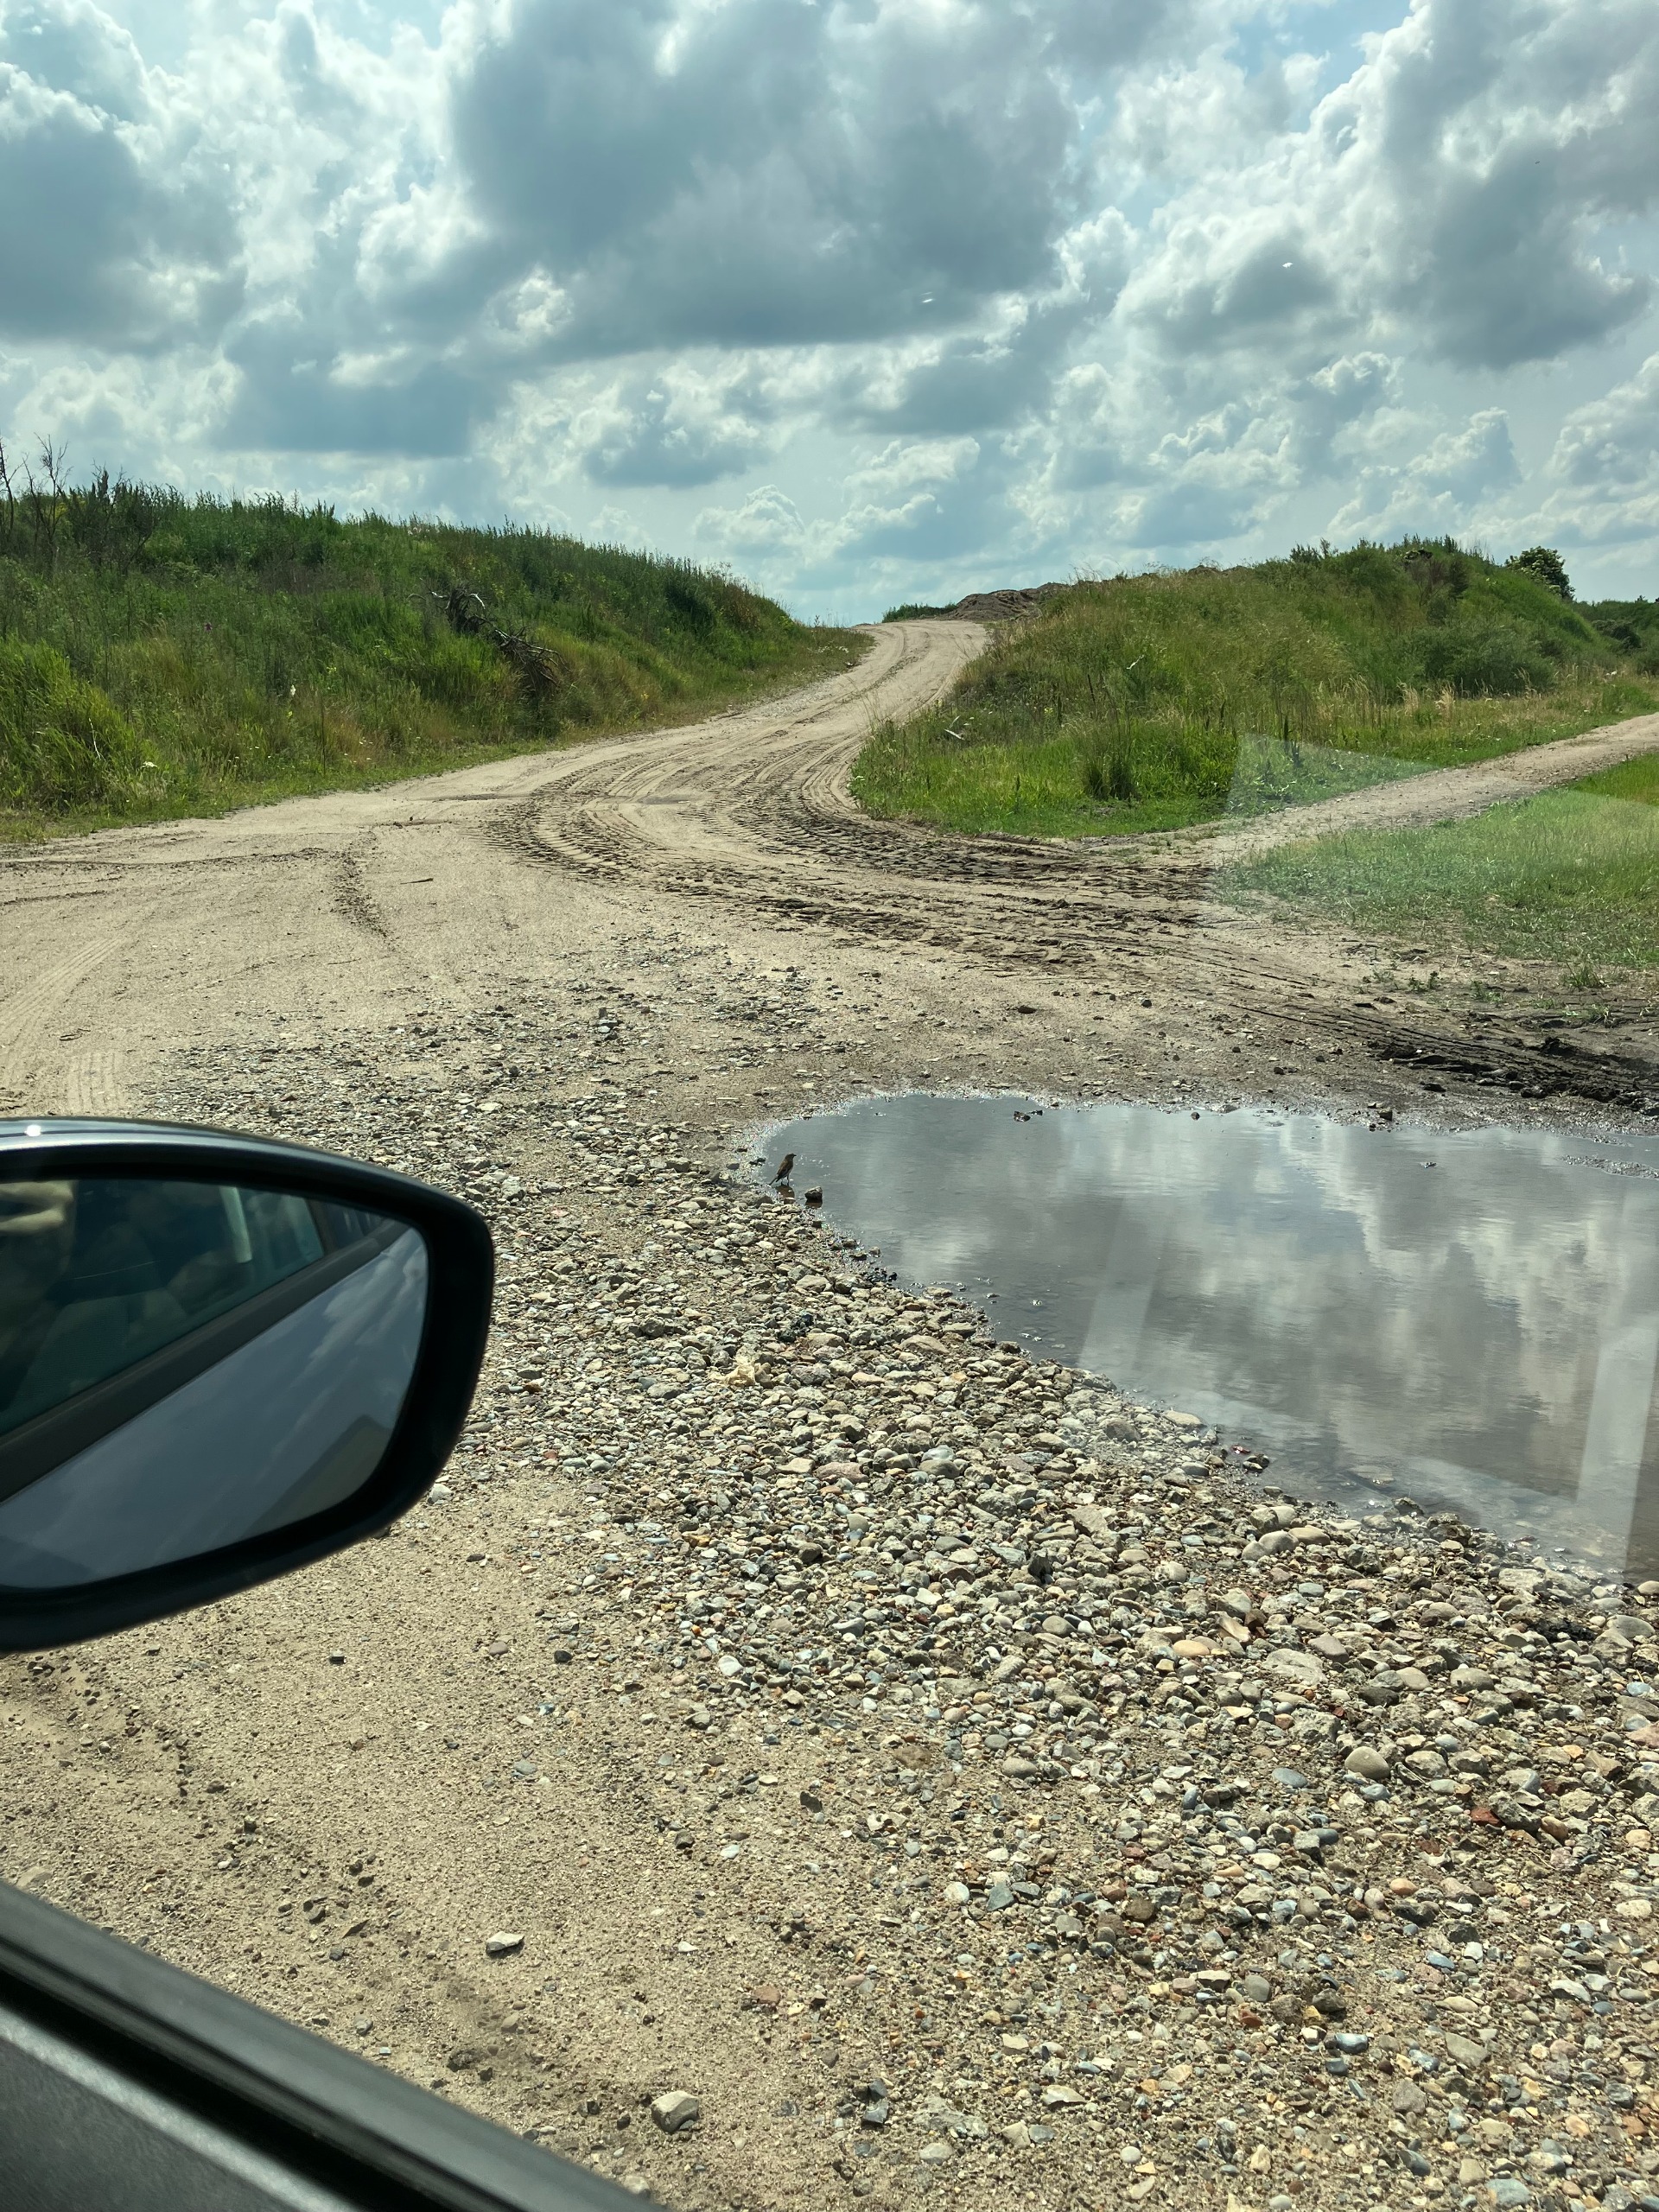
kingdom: Animalia
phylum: Chordata
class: Aves
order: Passeriformes
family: Fringillidae
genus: Linaria
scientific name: Linaria cannabina
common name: Tornirisk
